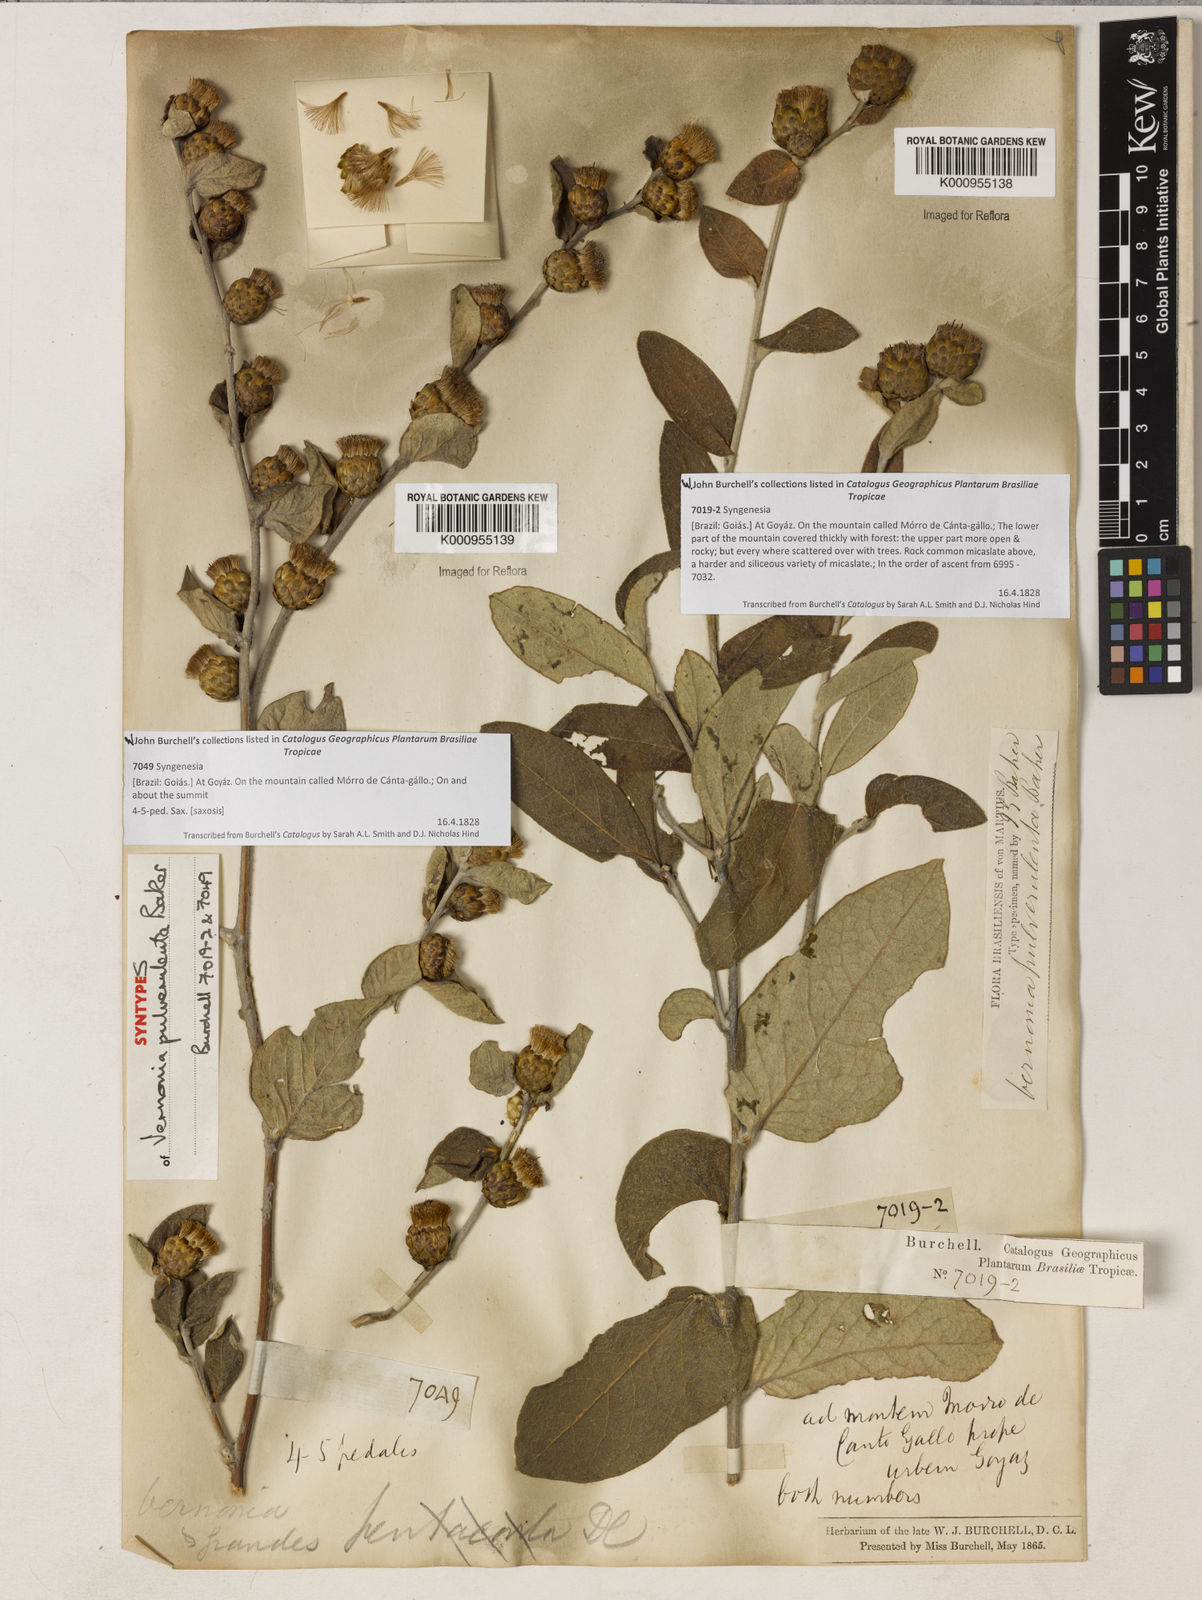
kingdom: Plantae
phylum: Tracheophyta
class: Magnoliopsida
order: Asterales
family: Asteraceae
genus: Lessingianthus
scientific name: Lessingianthus pulverulentus
